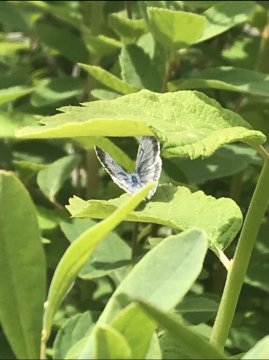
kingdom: Animalia
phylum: Arthropoda
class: Insecta
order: Lepidoptera
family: Lycaenidae
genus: Celastrina
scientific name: Celastrina ladon
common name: Echo Azure
